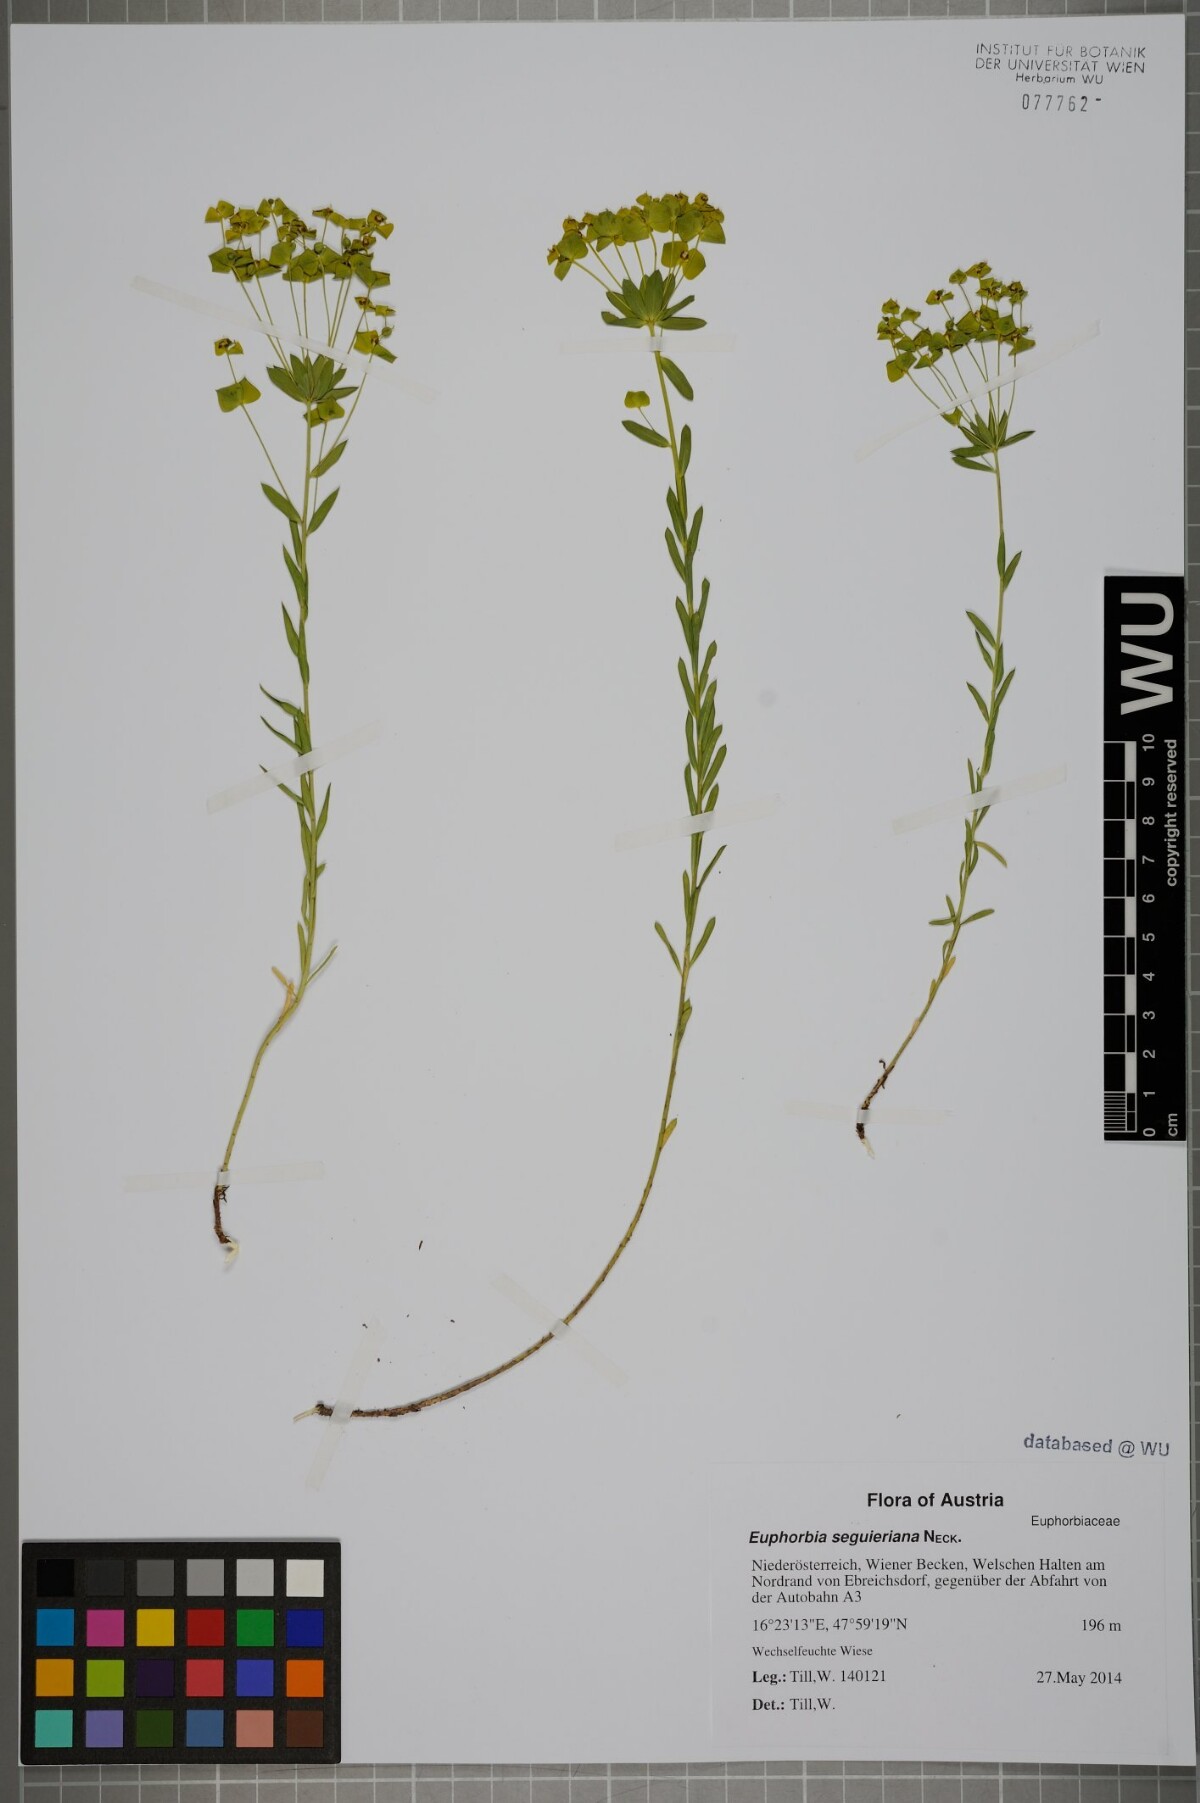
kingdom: Plantae
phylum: Tracheophyta
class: Magnoliopsida
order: Malpighiales
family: Euphorbiaceae
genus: Euphorbia
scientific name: Euphorbia seguieriana
